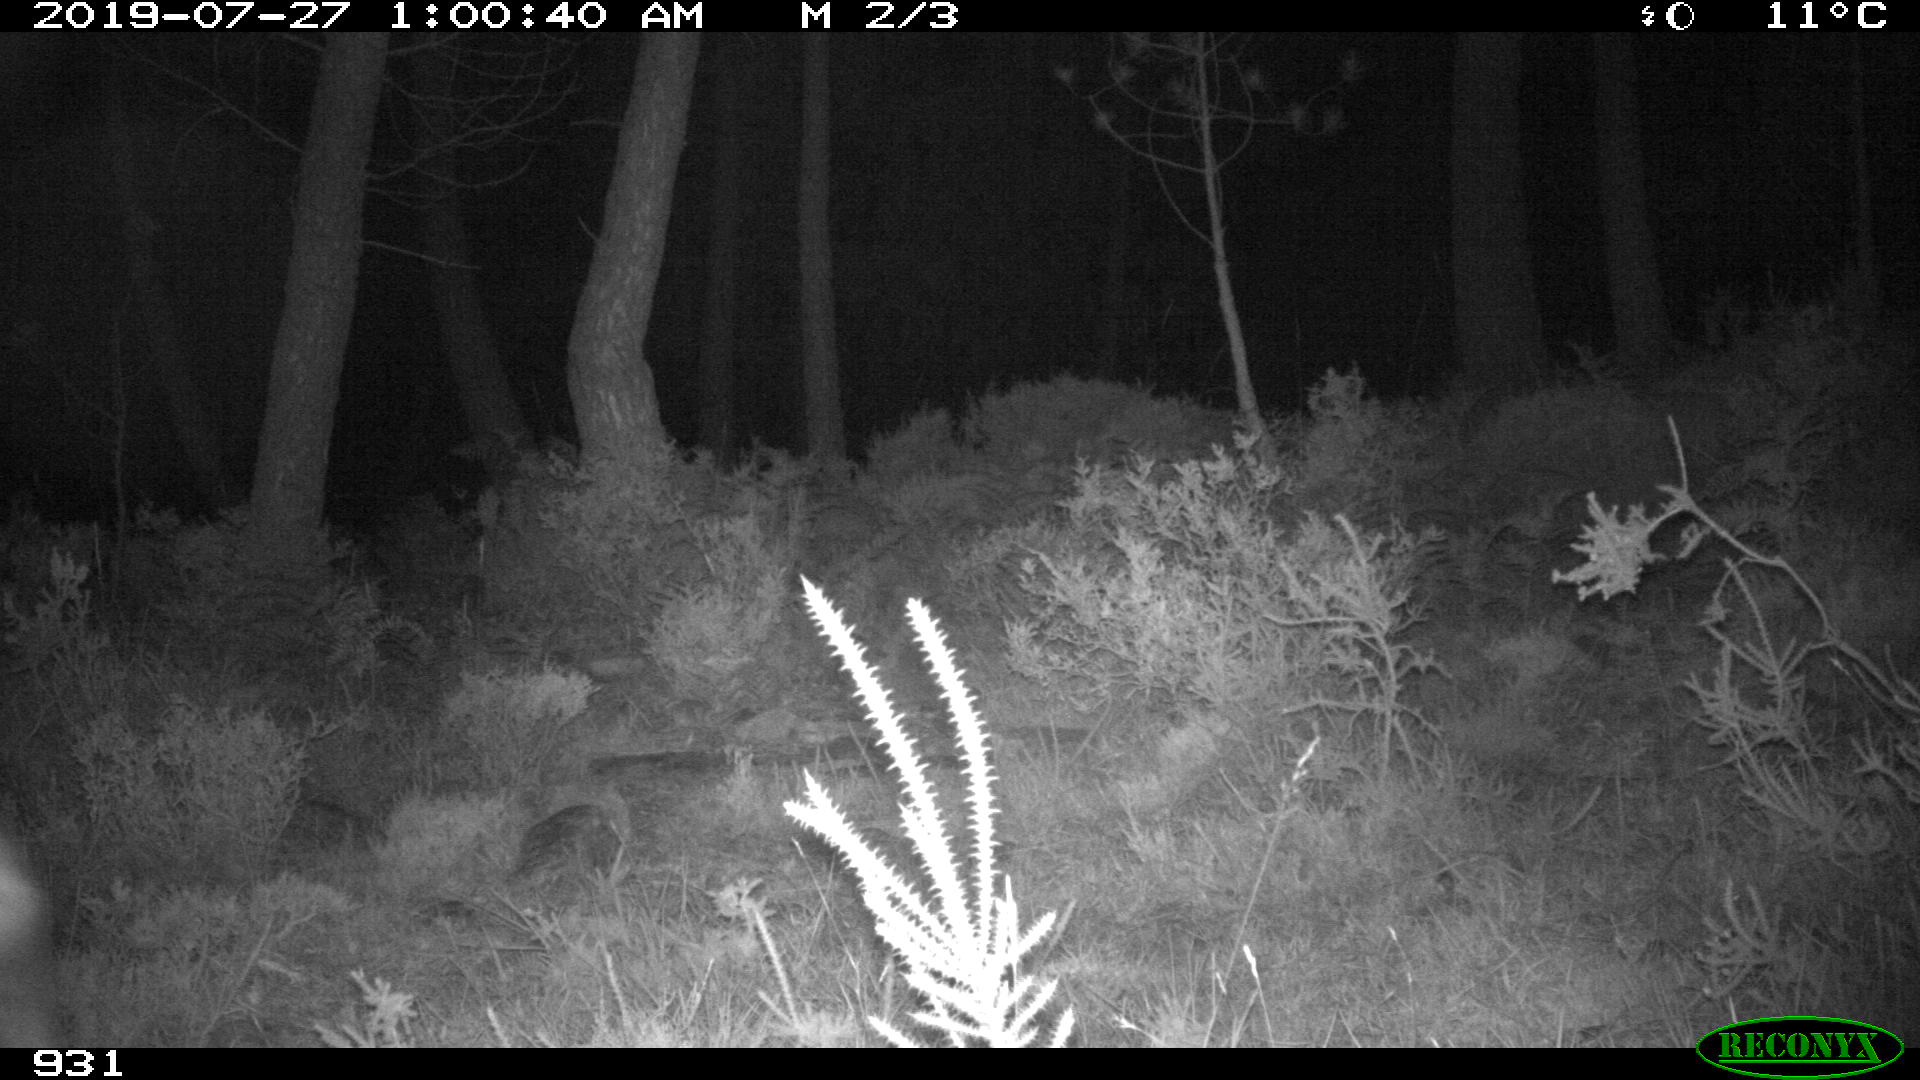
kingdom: Animalia
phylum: Chordata
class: Mammalia
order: Artiodactyla
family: Cervidae
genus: Capreolus
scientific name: Capreolus capreolus
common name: Western roe deer
